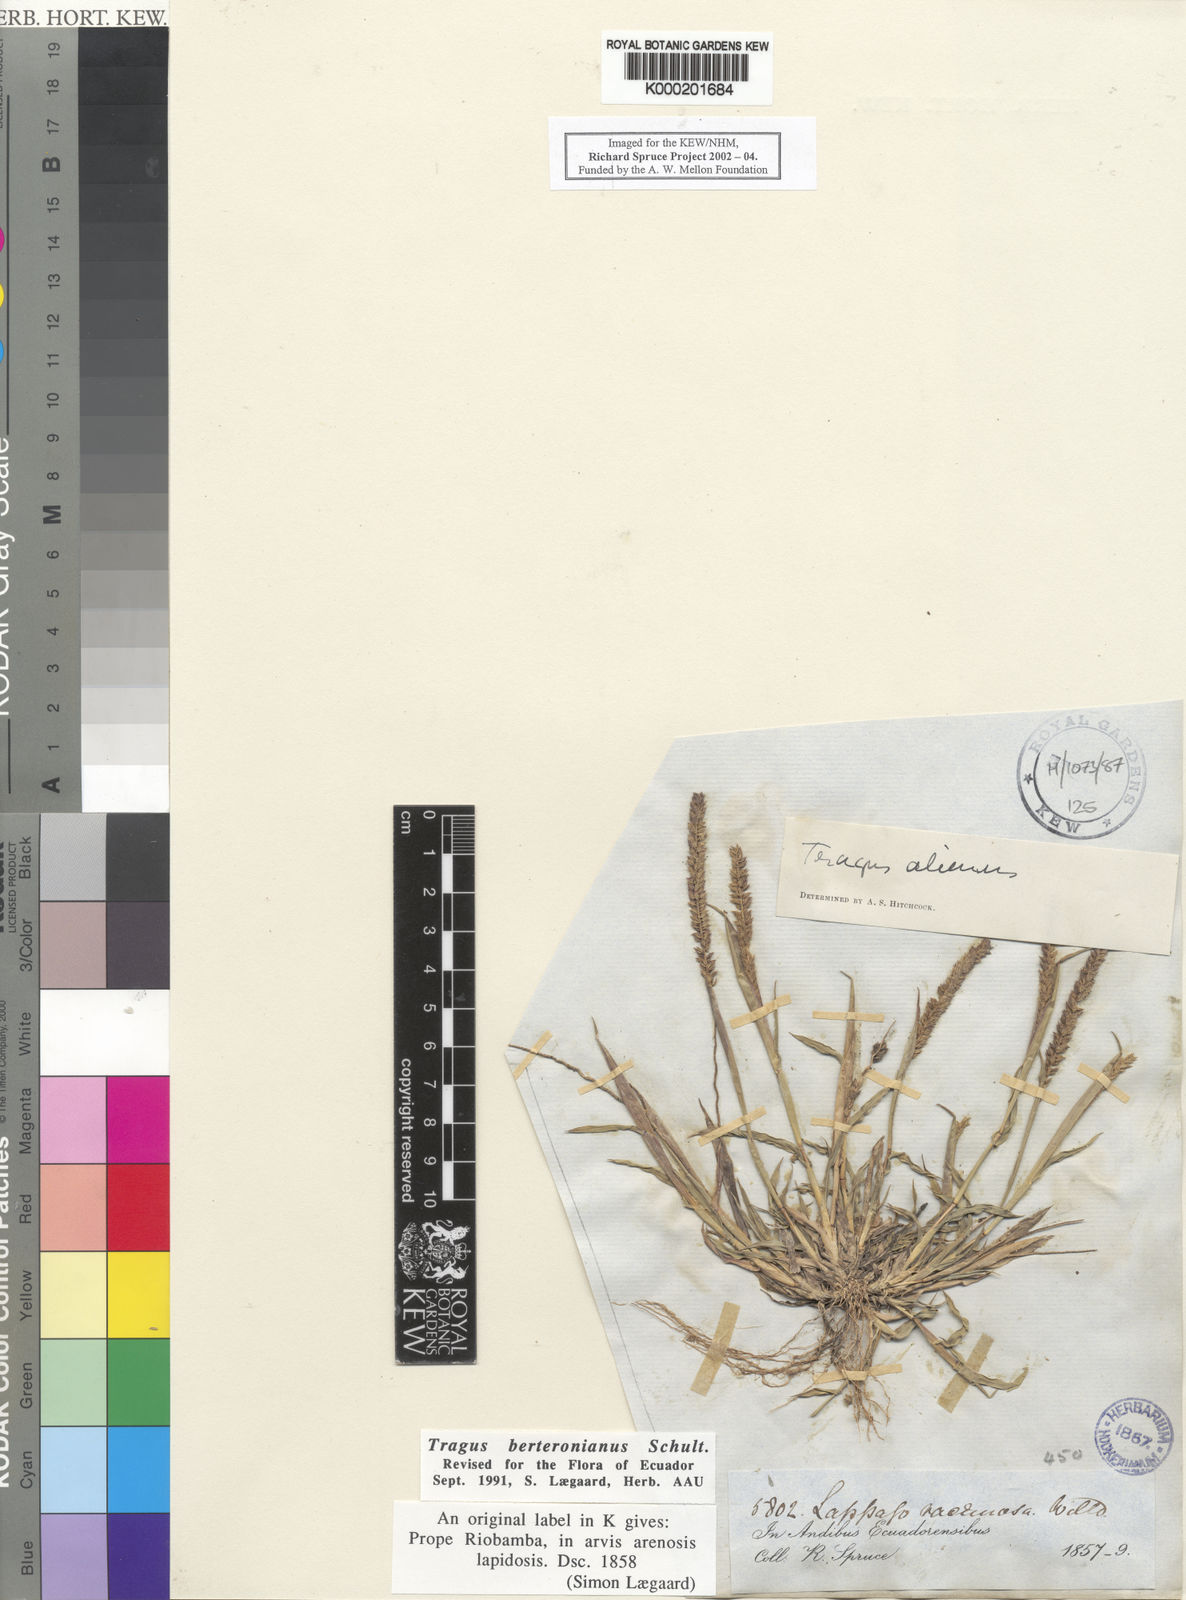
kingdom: Plantae
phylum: Tracheophyta
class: Liliopsida
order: Poales
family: Poaceae
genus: Tragus
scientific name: Tragus berteronianus
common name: African bur-grass
